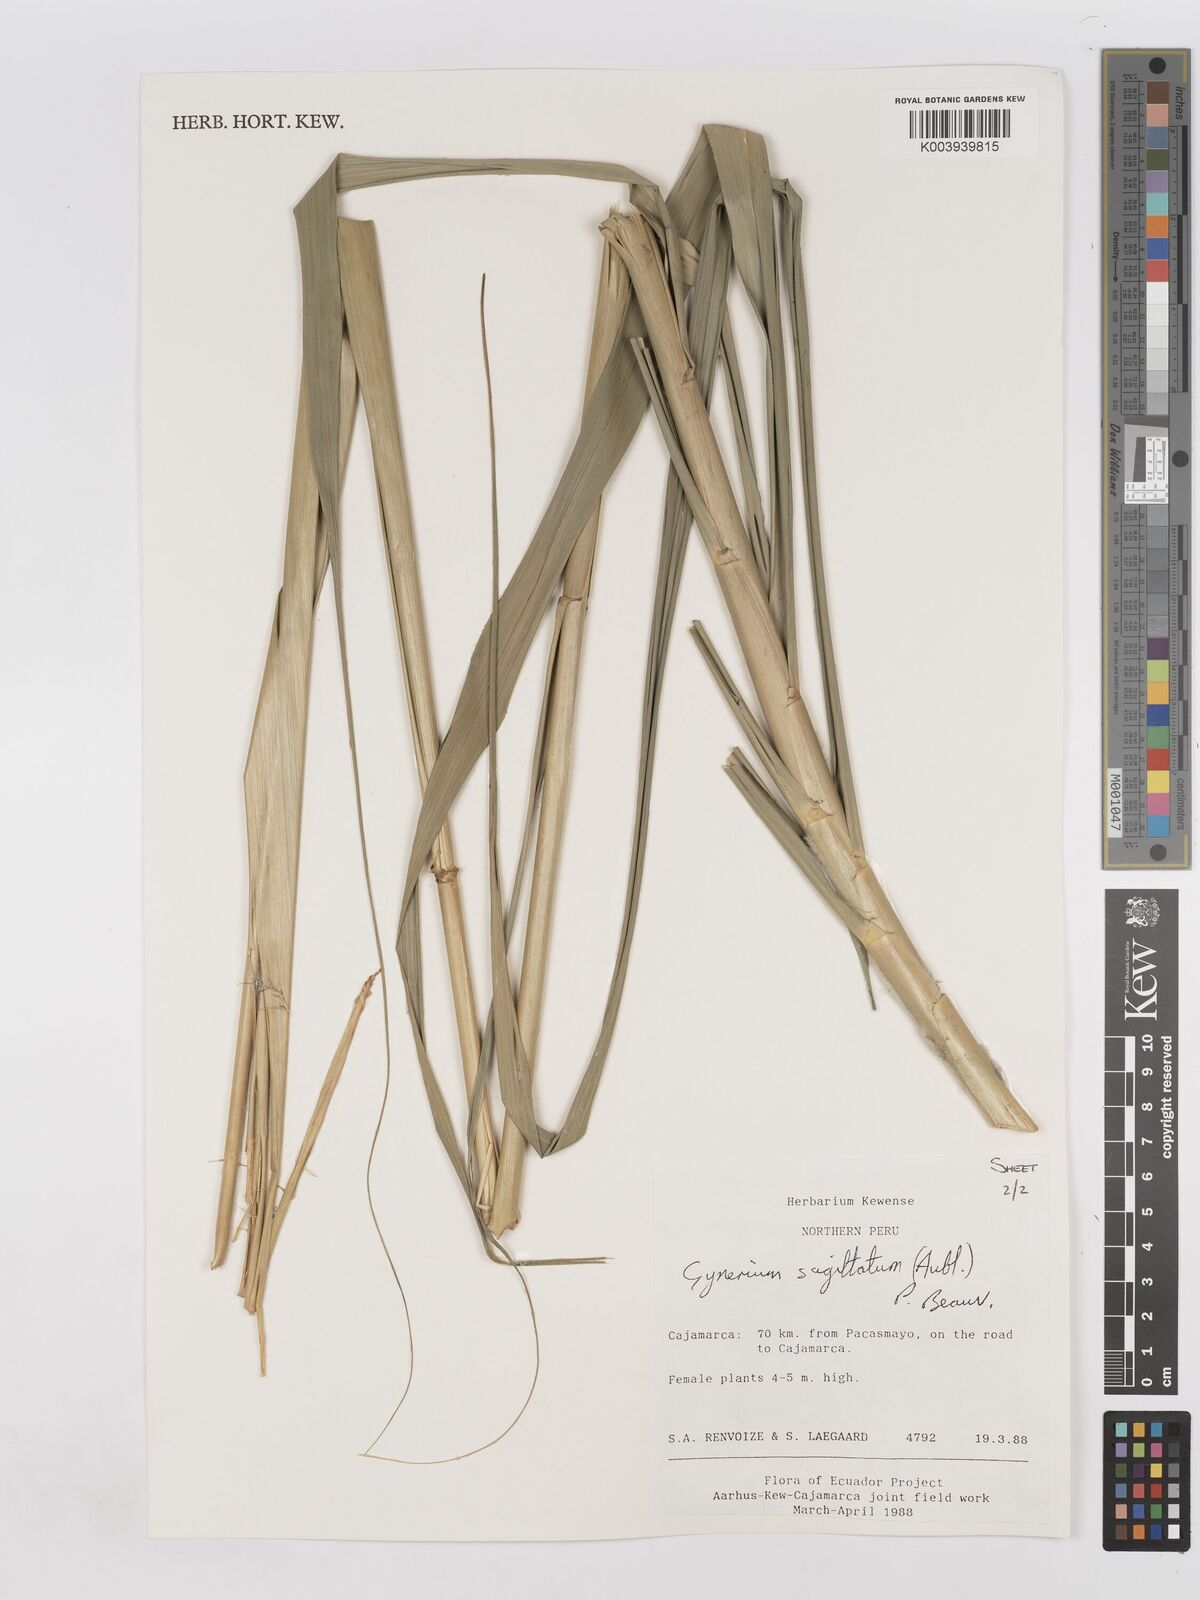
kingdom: Plantae
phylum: Tracheophyta
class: Liliopsida
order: Poales
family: Poaceae
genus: Gynerium
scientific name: Gynerium sagittatum
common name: Wild cane
